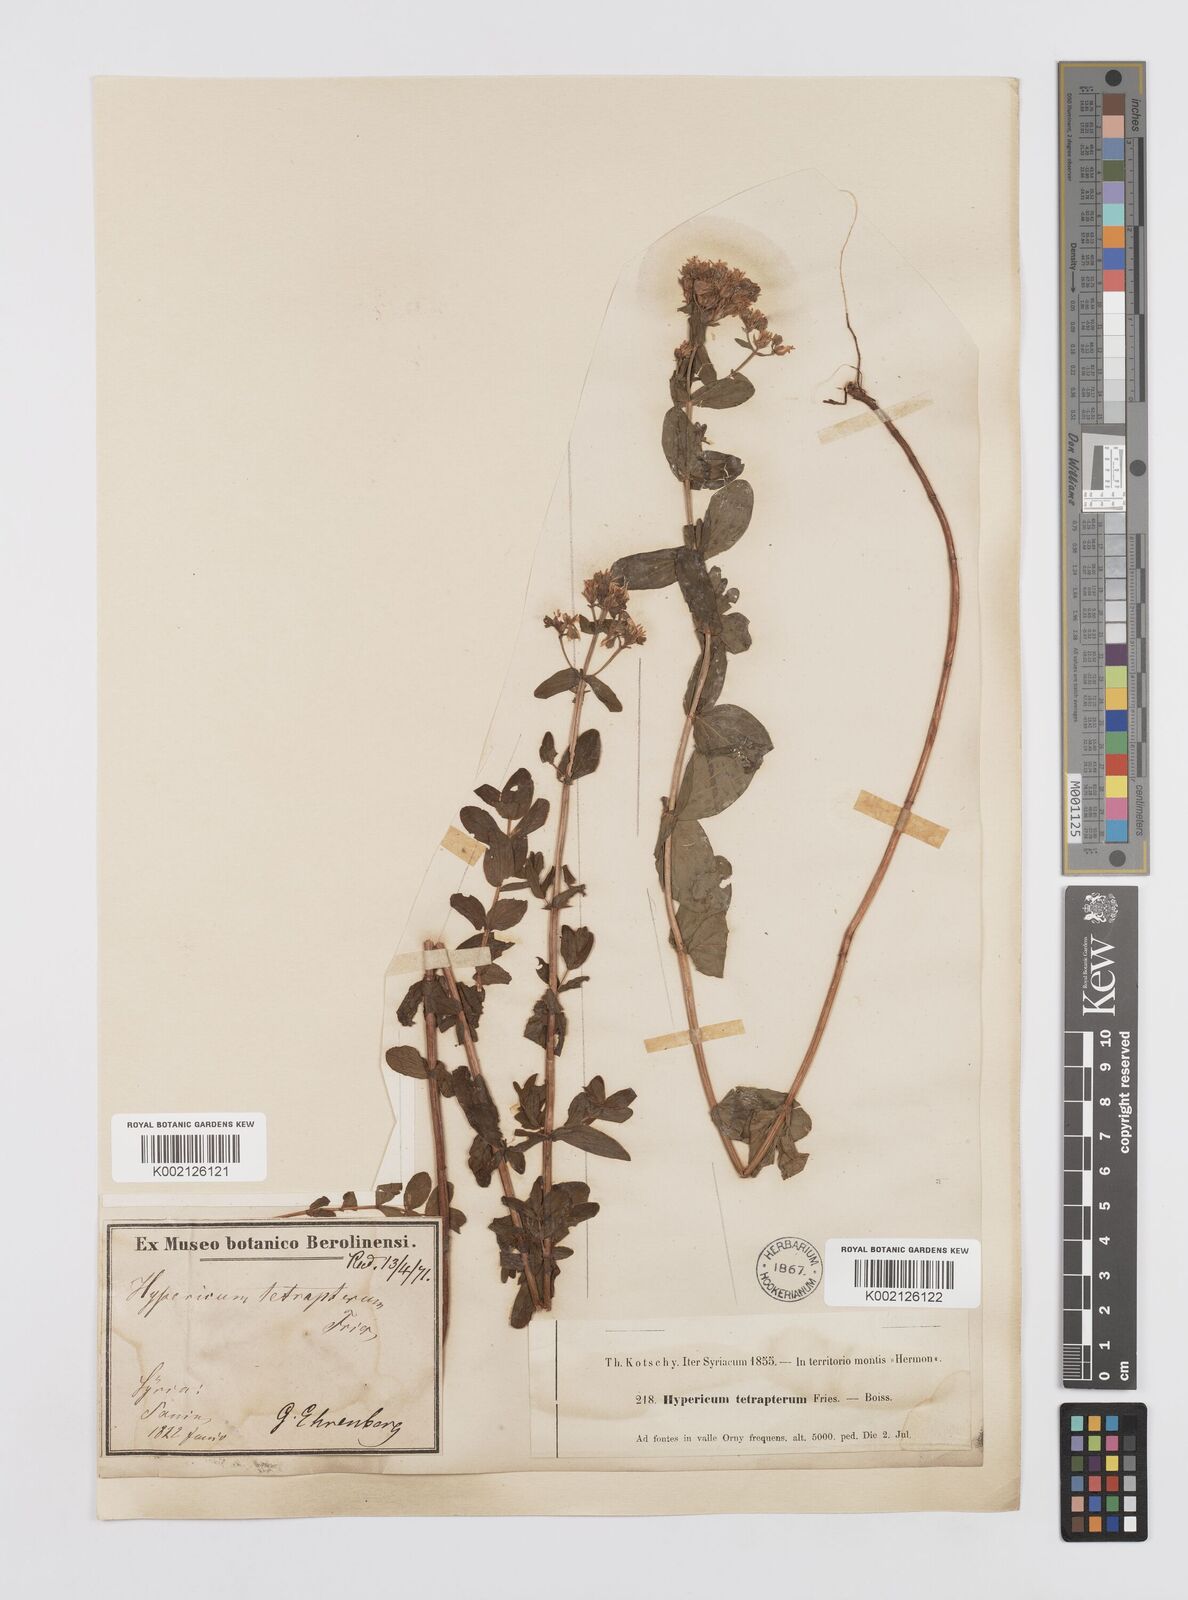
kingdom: Plantae
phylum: Tracheophyta
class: Magnoliopsida
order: Malpighiales
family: Hypericaceae
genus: Hypericum
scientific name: Hypericum tetrapterum
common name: Square-stalked st. john's-wort
